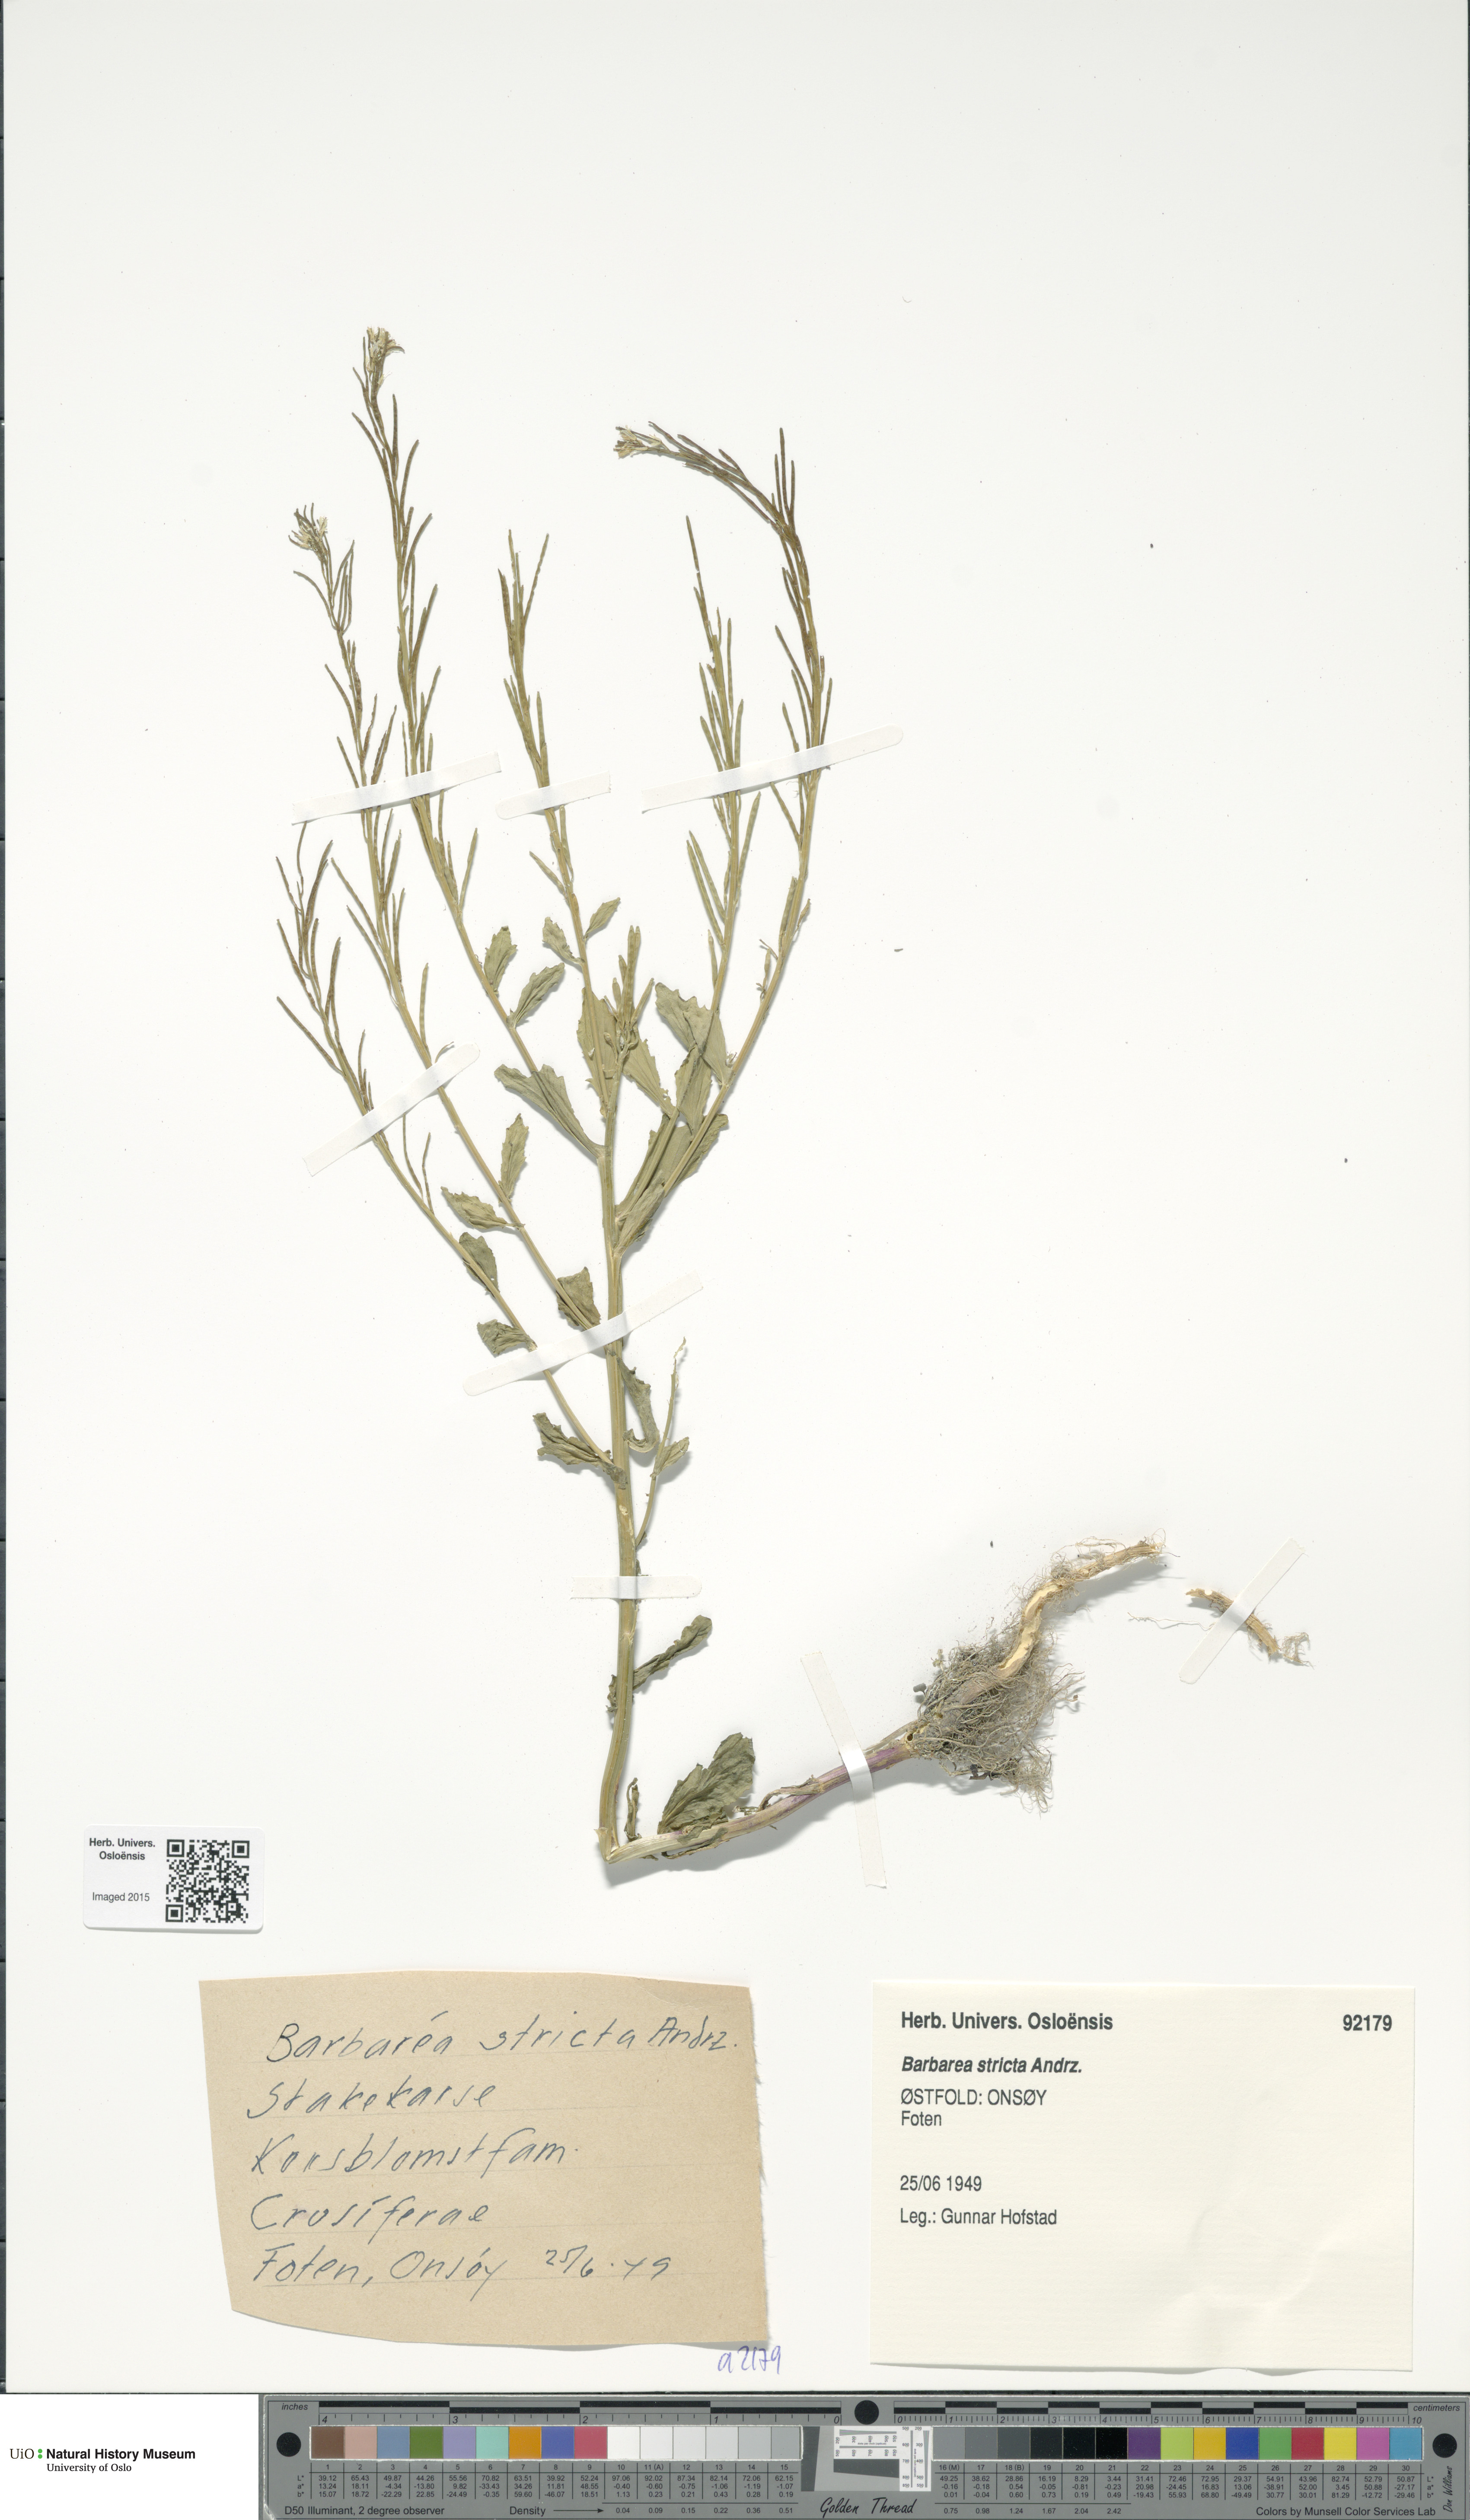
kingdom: Plantae
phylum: Tracheophyta
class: Magnoliopsida
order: Brassicales
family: Brassicaceae
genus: Barbarea
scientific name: Barbarea stricta
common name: Small-flowered winter-cress
